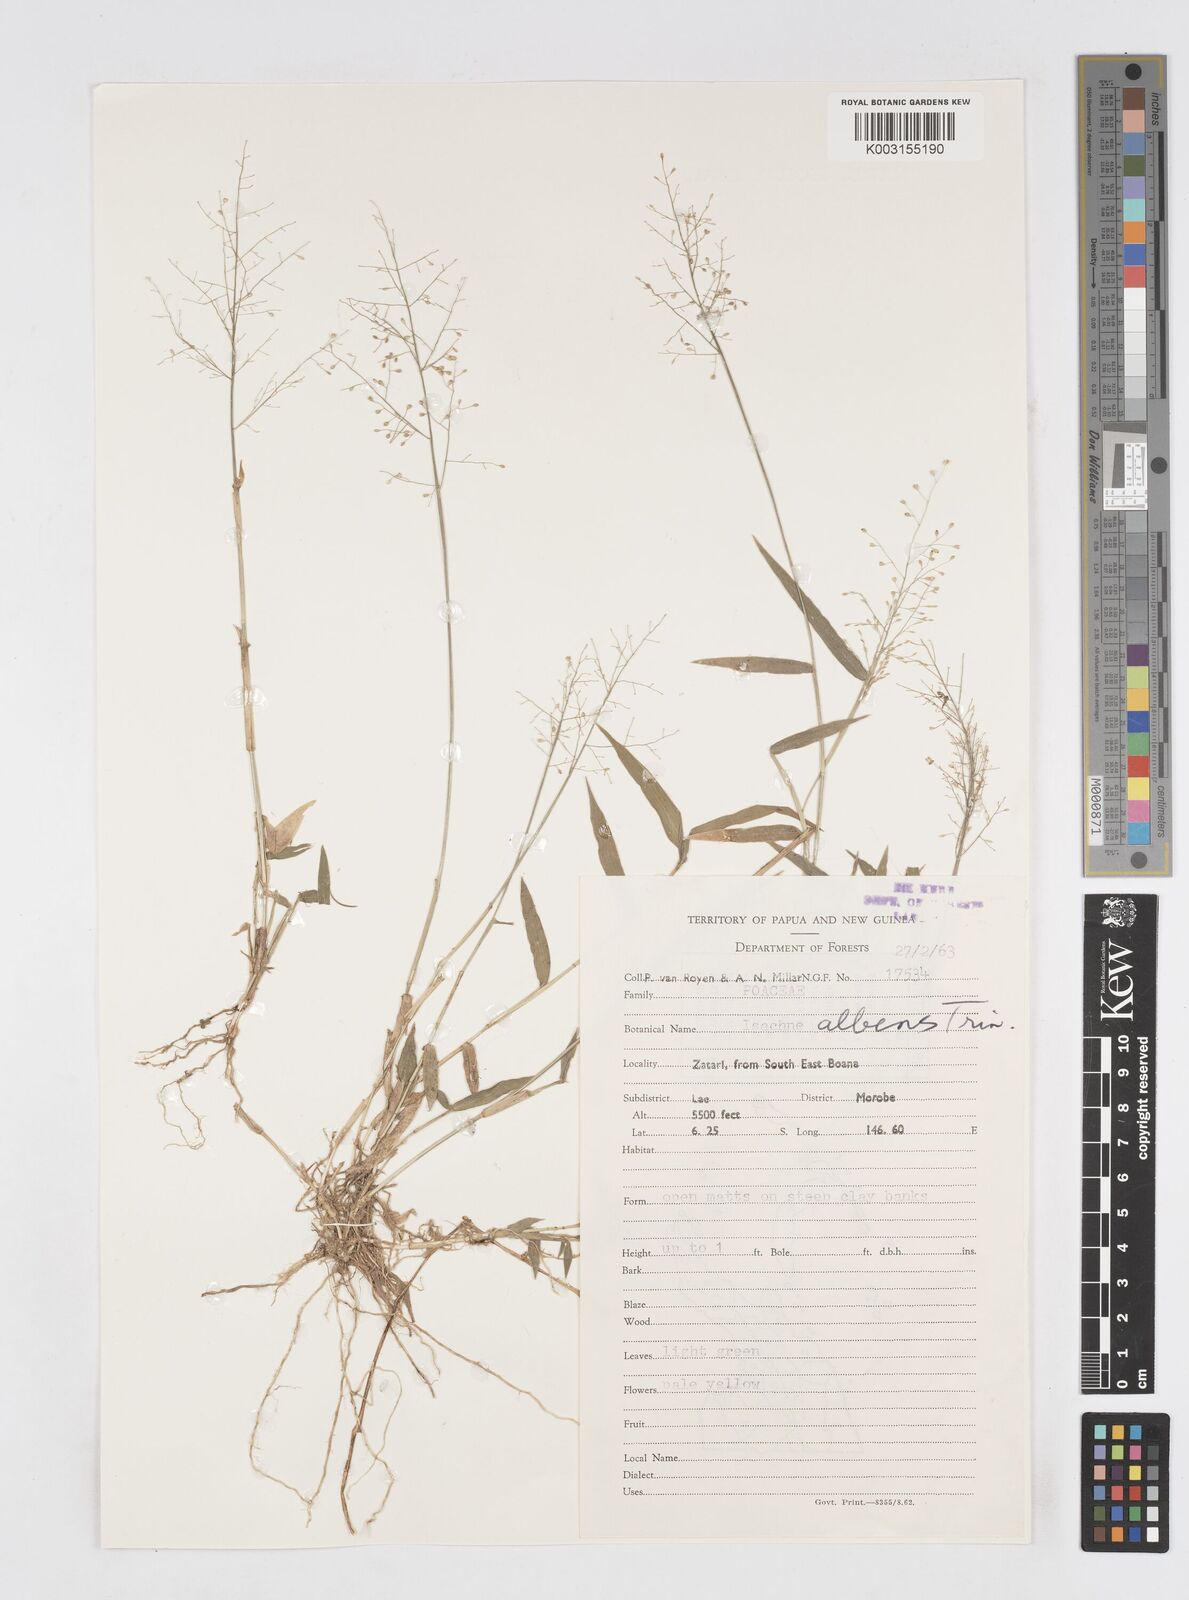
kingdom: Plantae
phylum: Tracheophyta
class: Liliopsida
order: Poales
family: Poaceae
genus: Isachne
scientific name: Isachne albens
